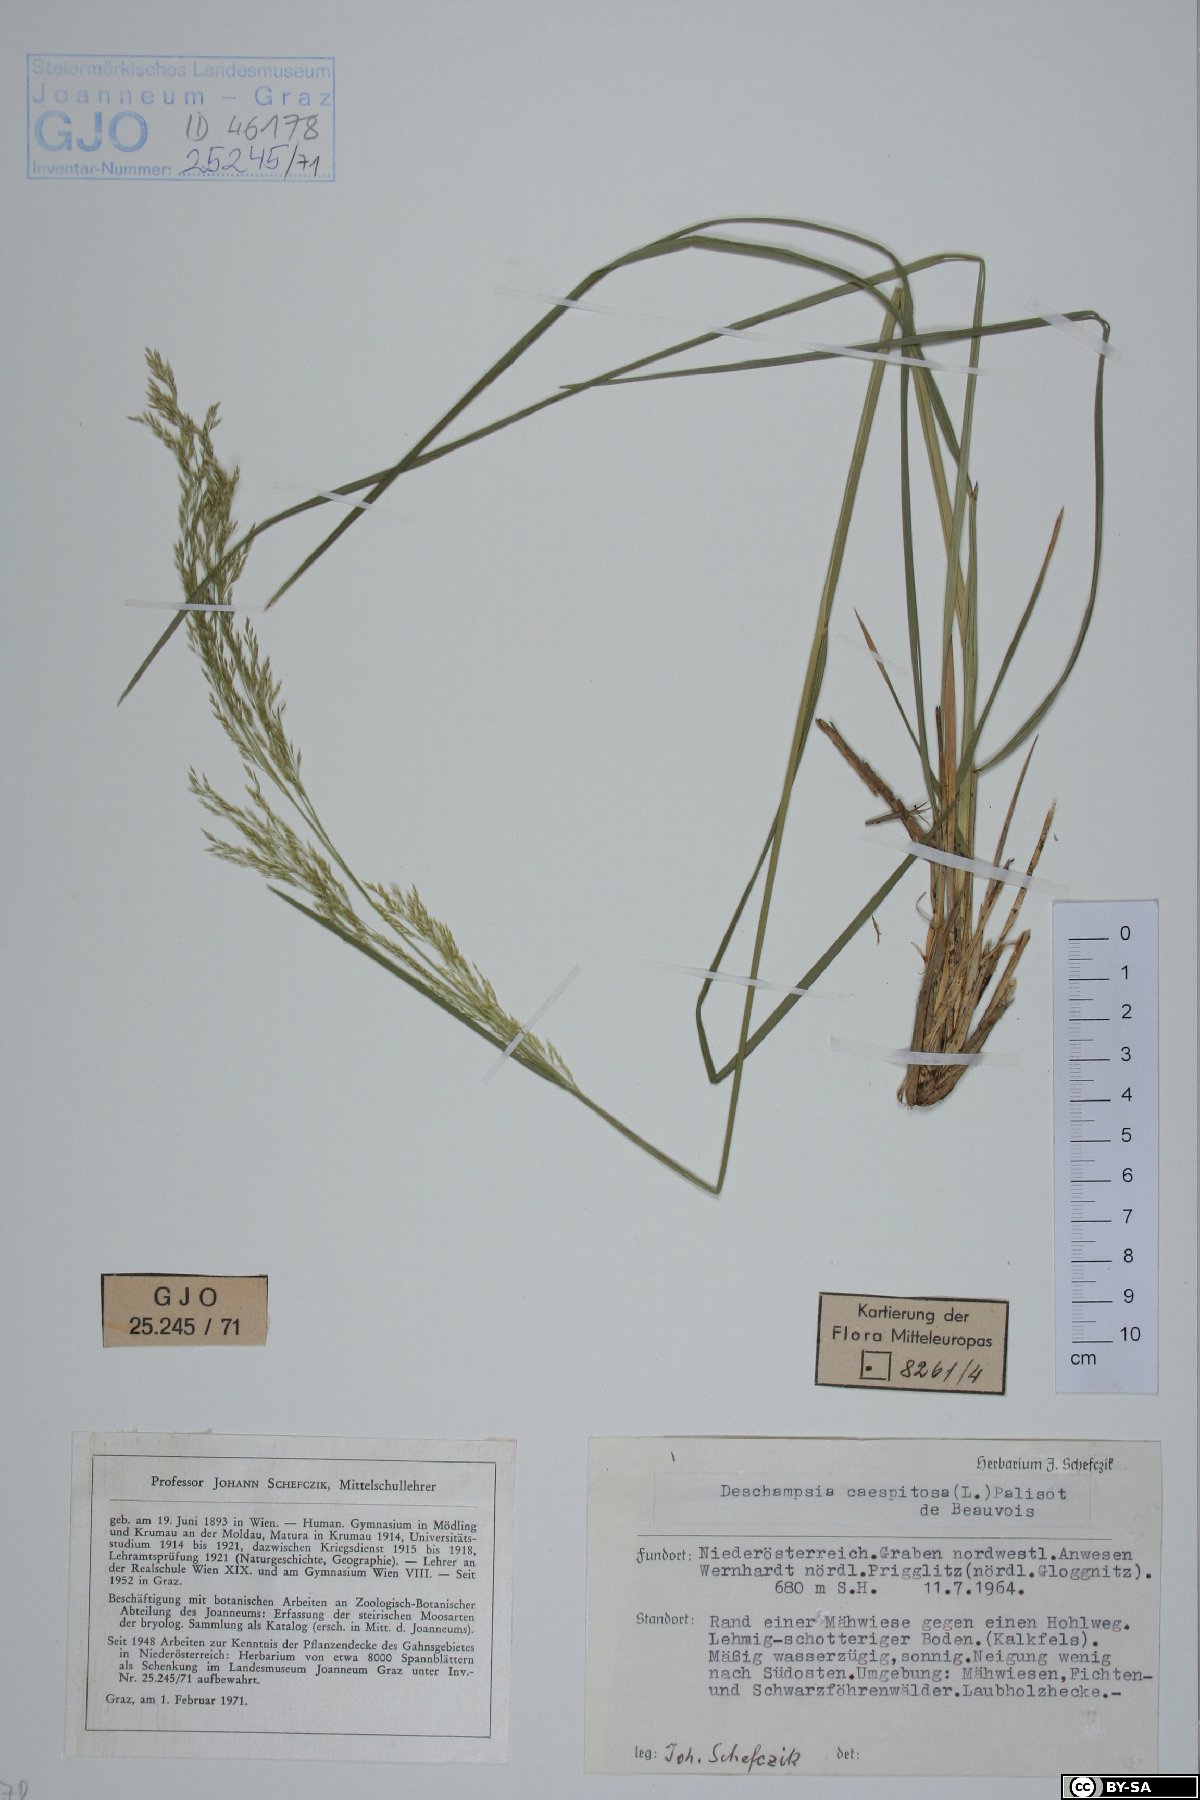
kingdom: Plantae
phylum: Tracheophyta
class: Liliopsida
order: Poales
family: Poaceae
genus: Deschampsia
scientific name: Deschampsia cespitosa
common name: Tufted hair-grass
